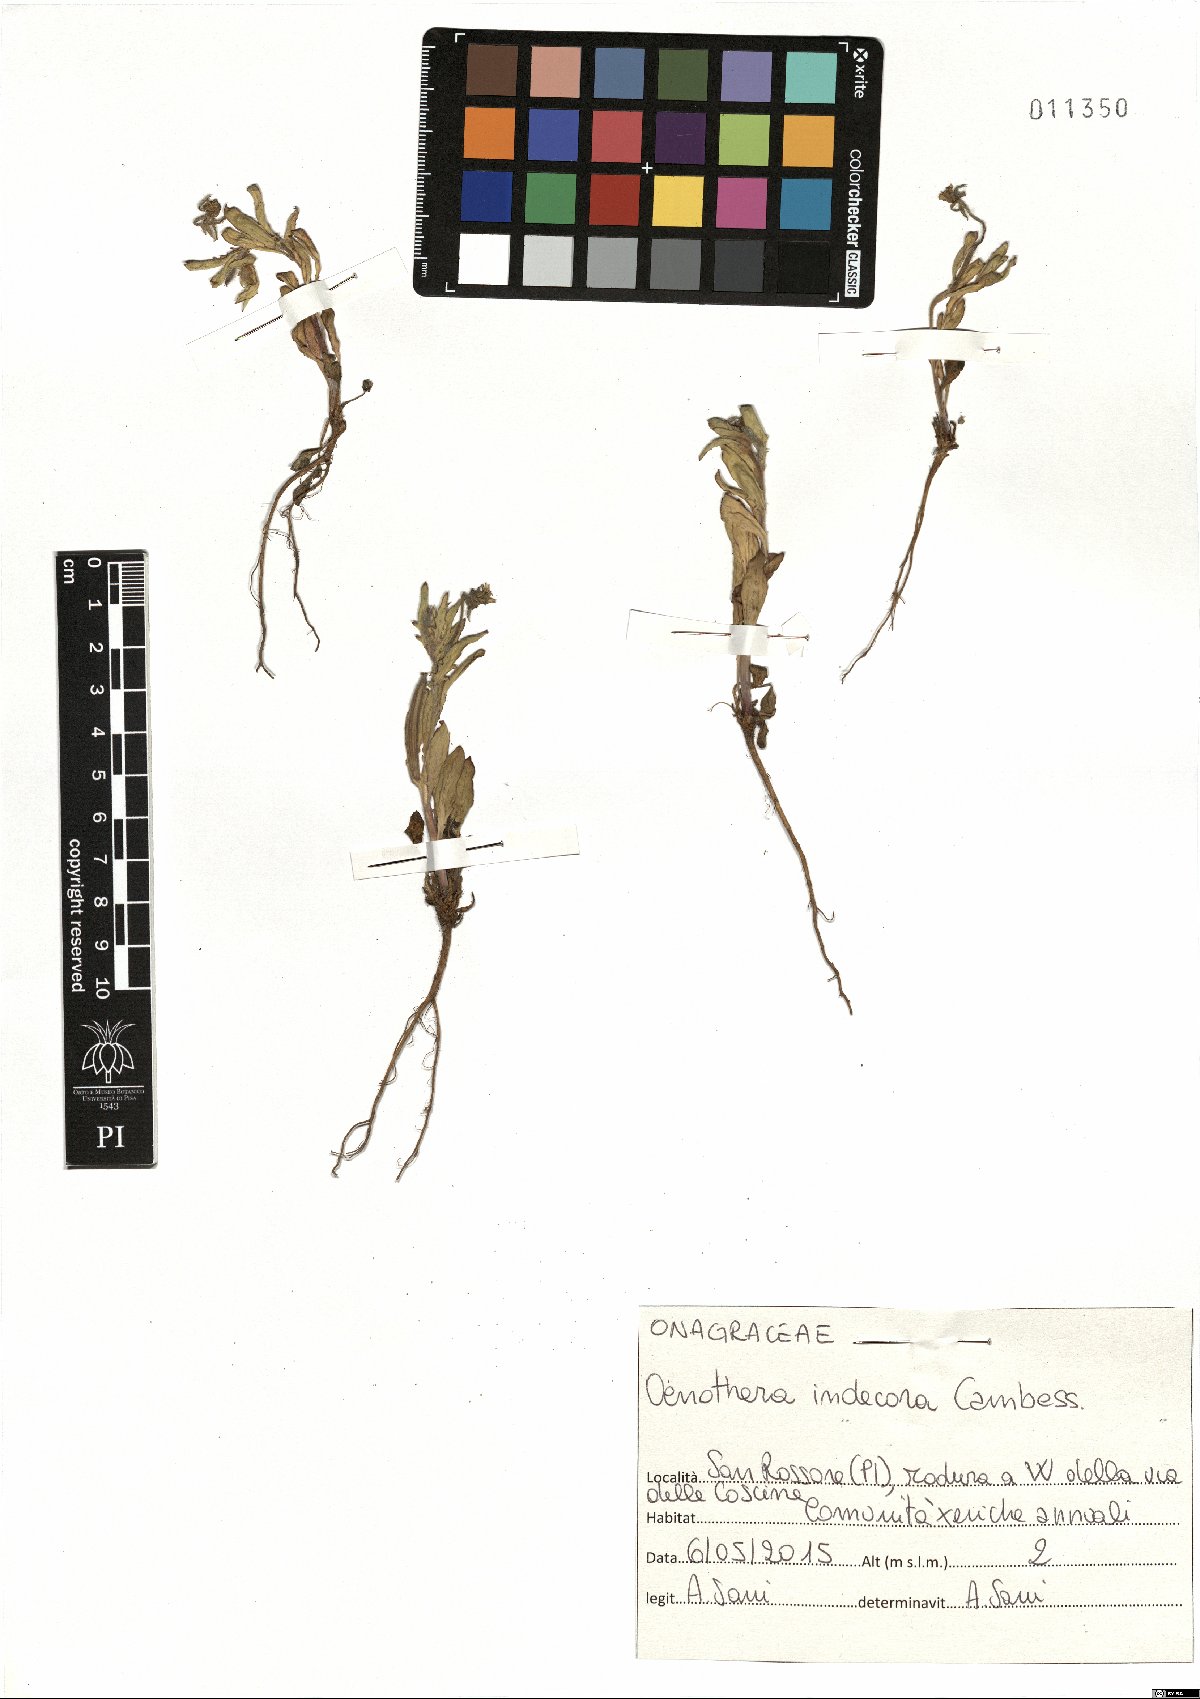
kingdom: Plantae
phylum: Tracheophyta
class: Magnoliopsida
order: Myrtales
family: Onagraceae
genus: Oenothera
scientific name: Oenothera indecora
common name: Small-flower evening-primrose
